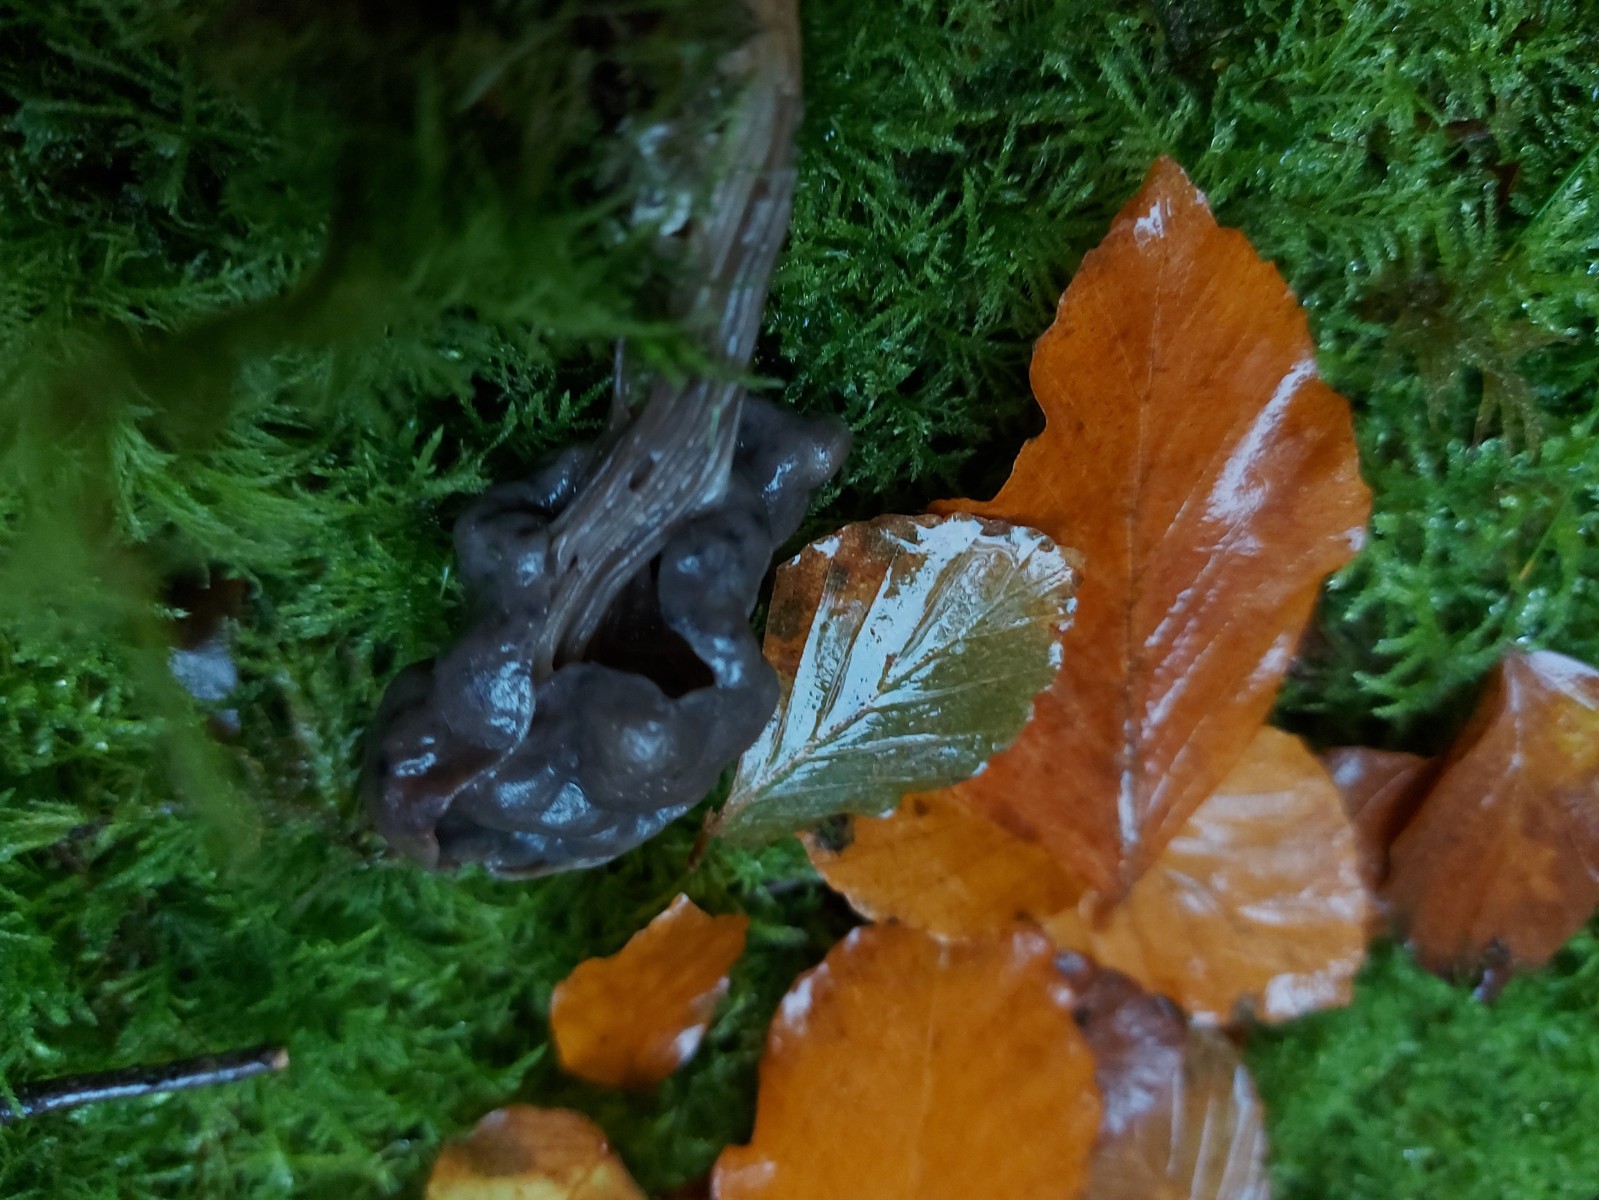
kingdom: Fungi
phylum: Ascomycota
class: Pezizomycetes
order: Pezizales
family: Helvellaceae
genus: Helvella
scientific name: Helvella lacunosa
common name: grubet foldhat
